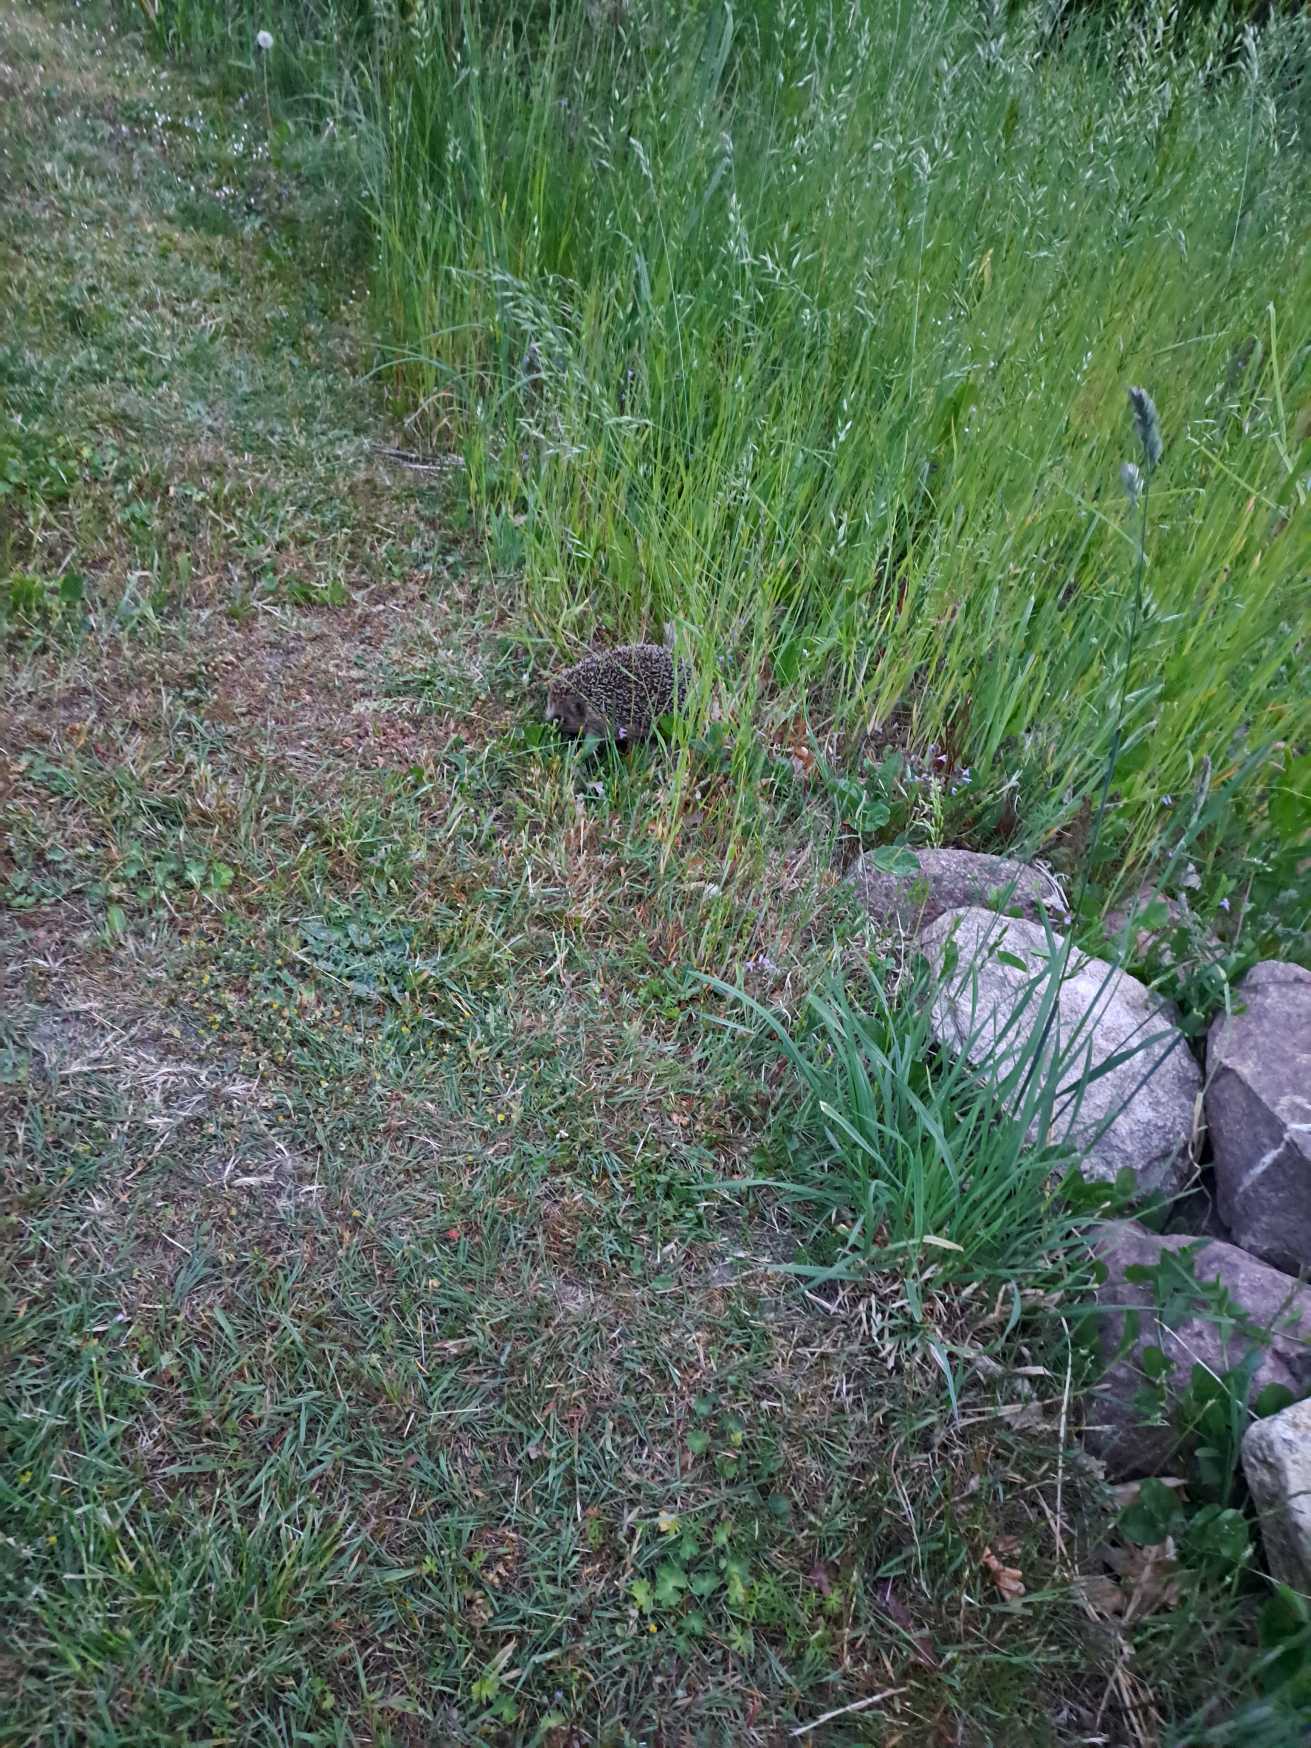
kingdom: Animalia
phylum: Chordata
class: Mammalia
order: Erinaceomorpha
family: Erinaceidae
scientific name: Erinaceidae
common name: Pindsvin
